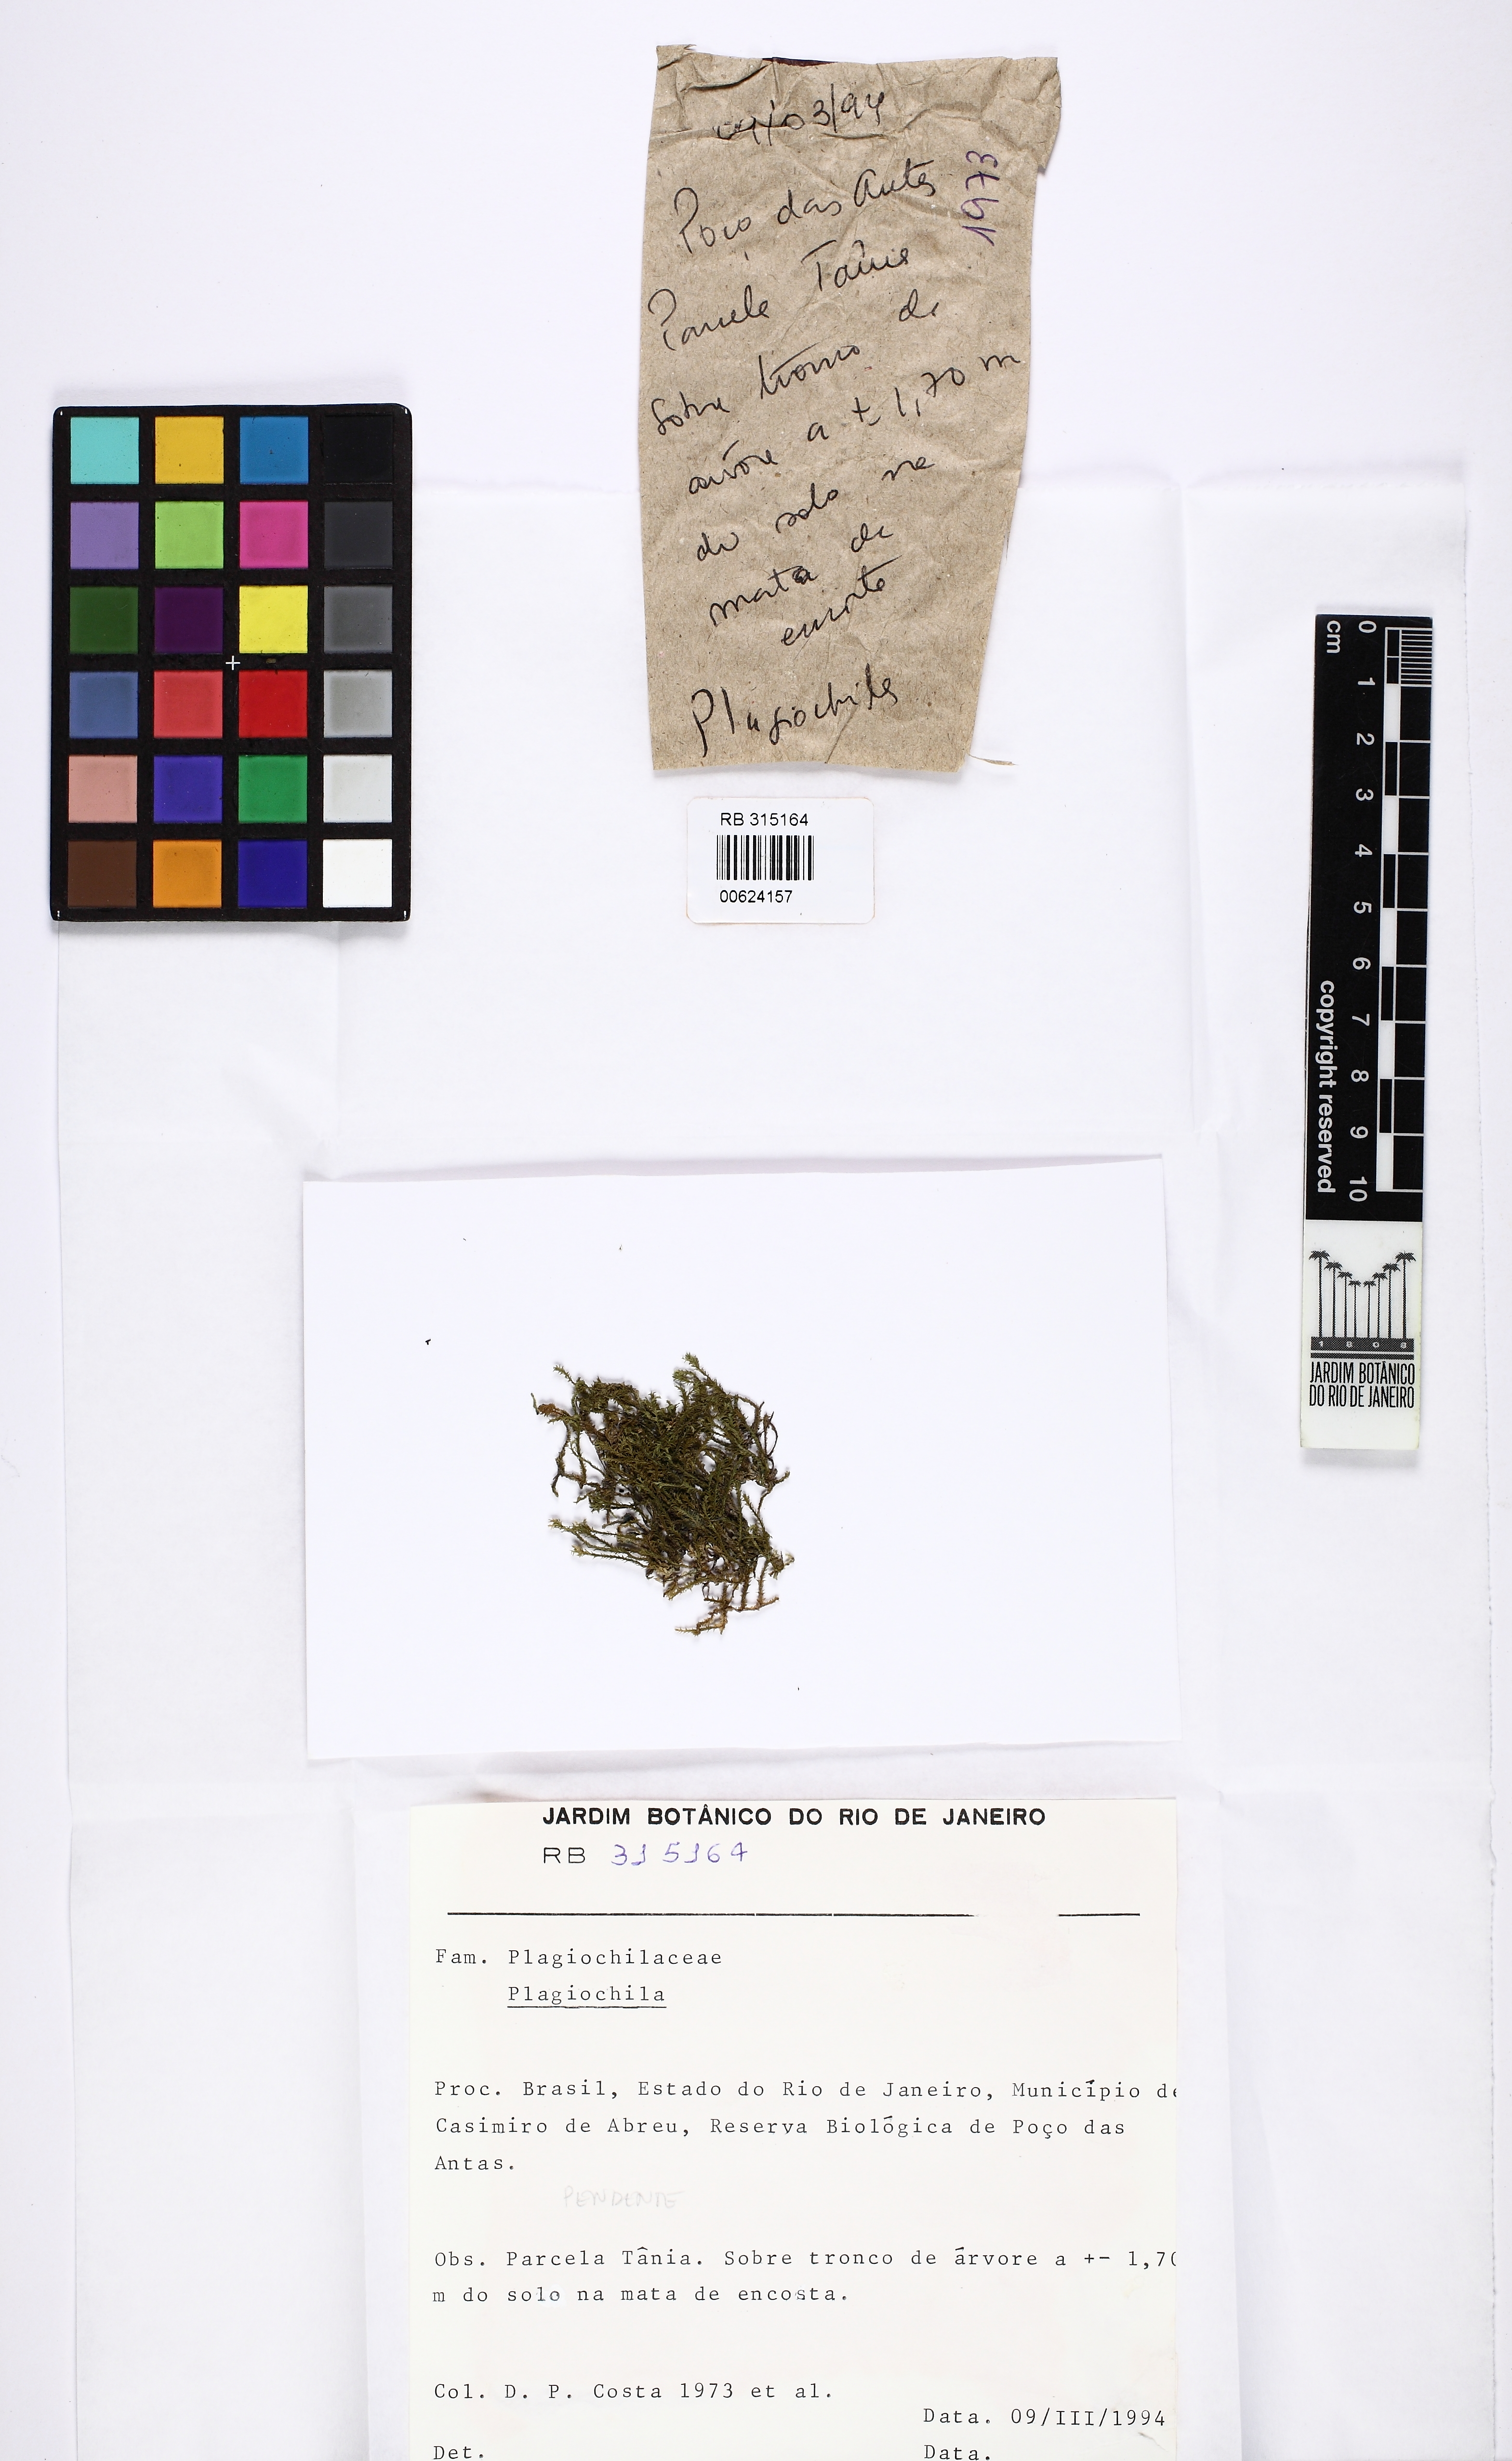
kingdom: Plantae
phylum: Marchantiophyta
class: Jungermanniopsida
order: Jungermanniales
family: Plagiochilaceae
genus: Plagiochila
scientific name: Plagiochila
